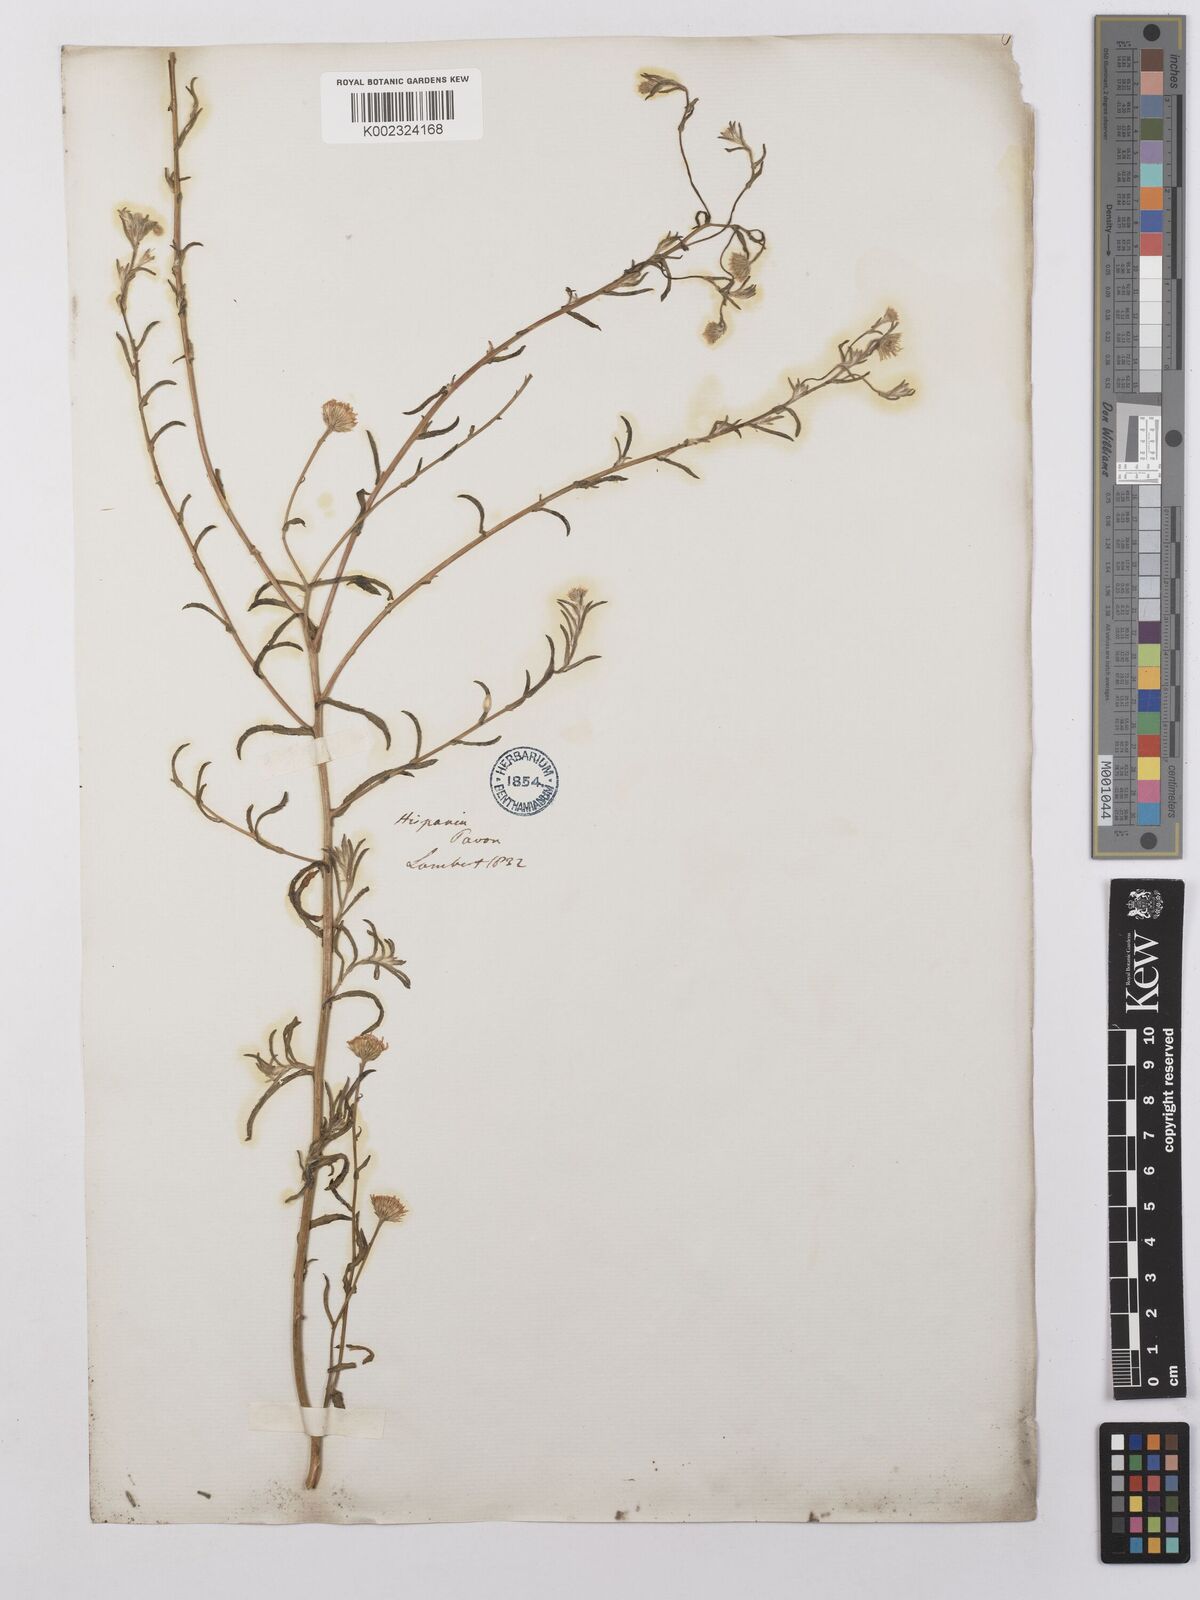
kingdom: Plantae
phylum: Tracheophyta
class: Magnoliopsida
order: Asterales
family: Asteraceae
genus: Pulicaria
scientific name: Pulicaria
